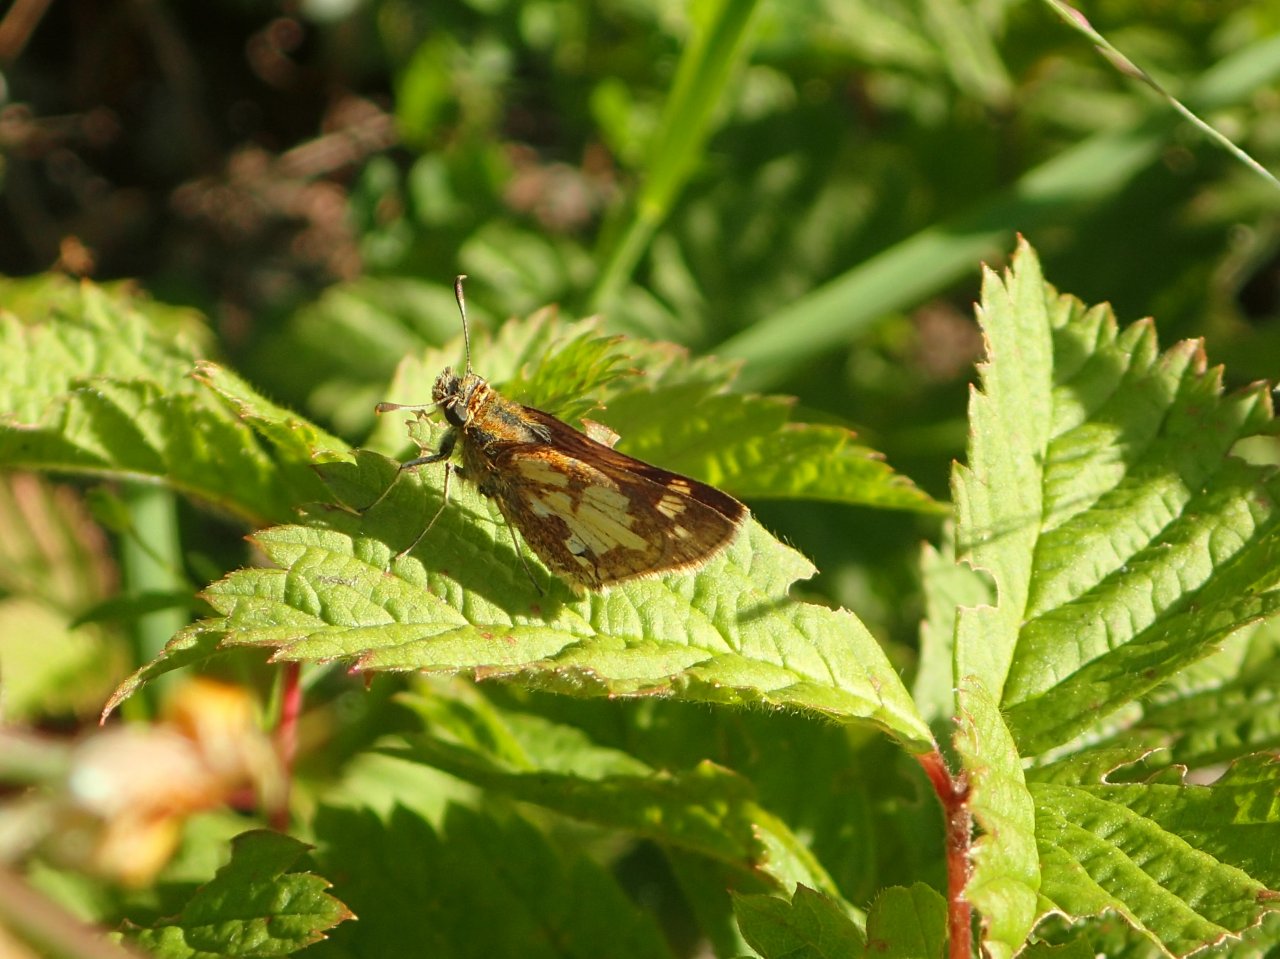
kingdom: Animalia
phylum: Arthropoda
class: Insecta
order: Lepidoptera
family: Hesperiidae
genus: Polites
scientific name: Polites coras
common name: Peck's Skipper
